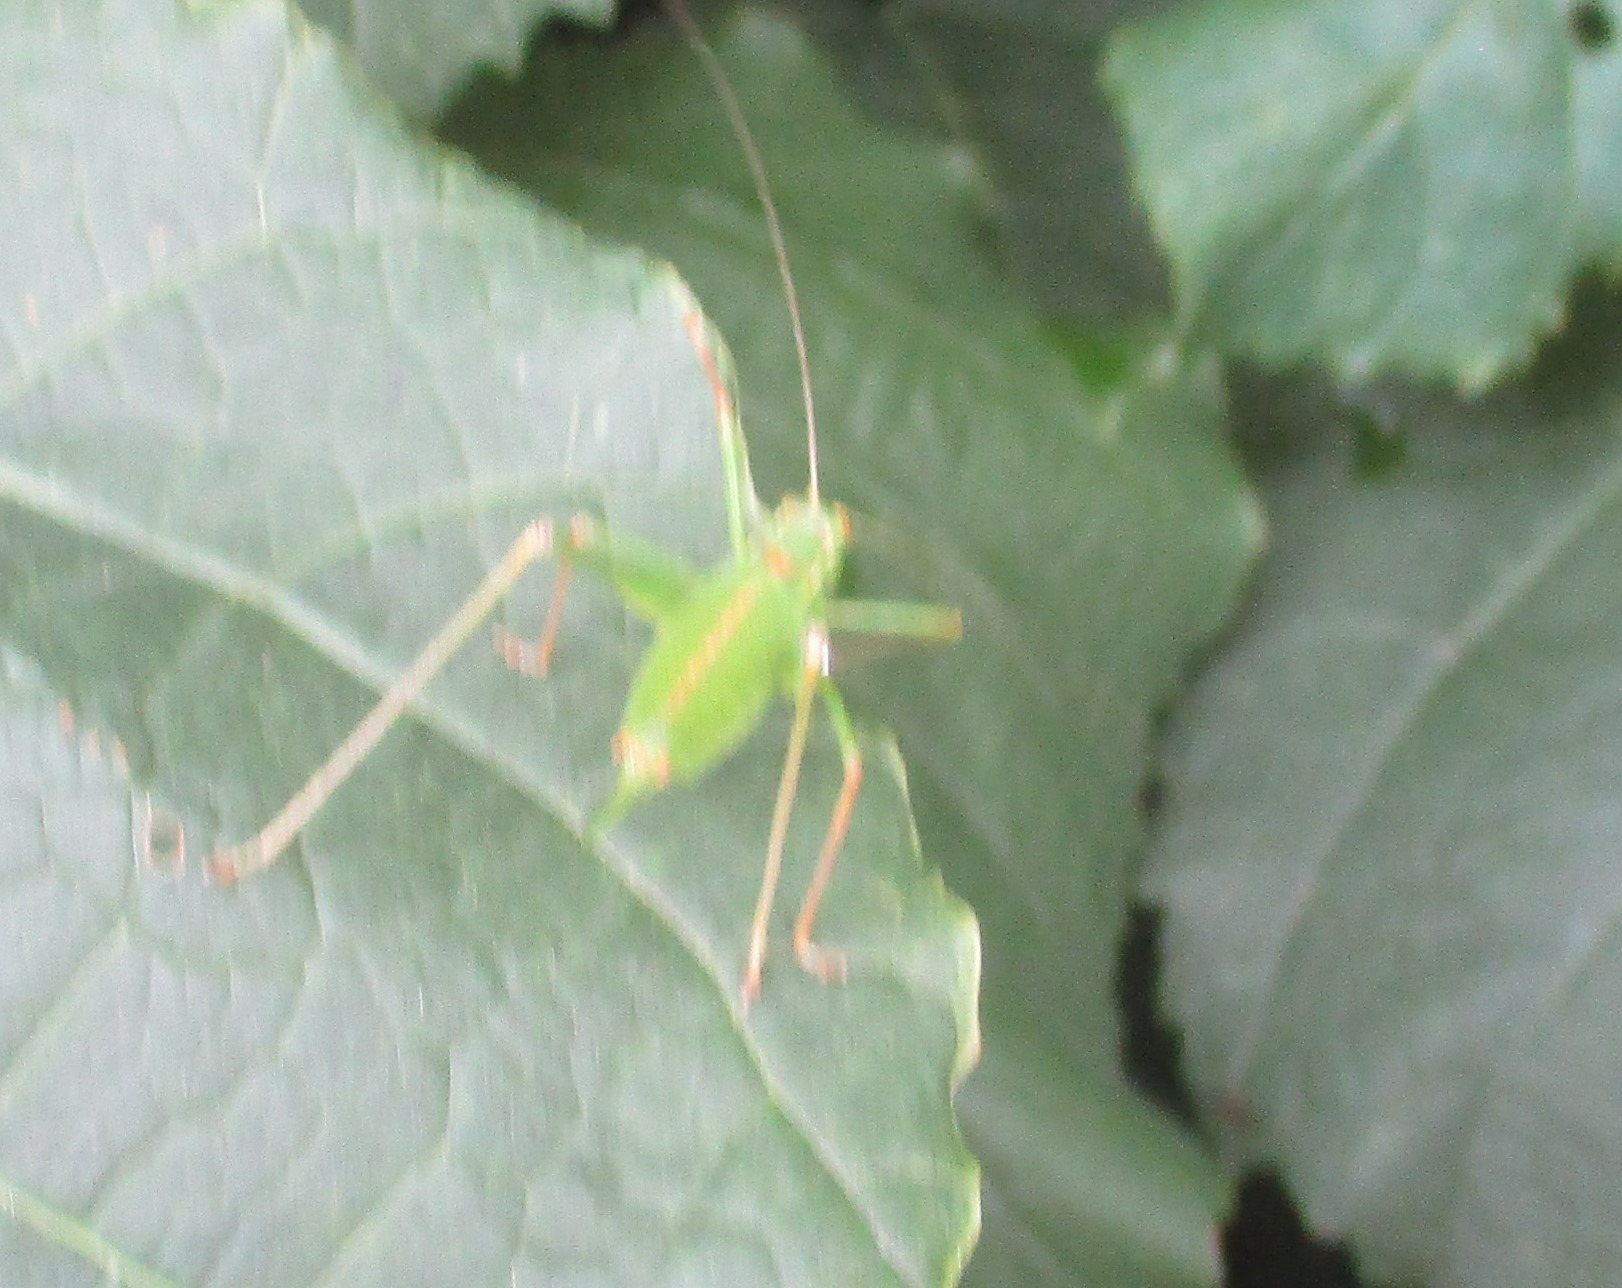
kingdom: Animalia
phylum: Arthropoda
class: Insecta
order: Orthoptera
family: Tettigoniidae
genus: Leptophyes
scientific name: Leptophyes punctatissima
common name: Krumknivgræshoppe
